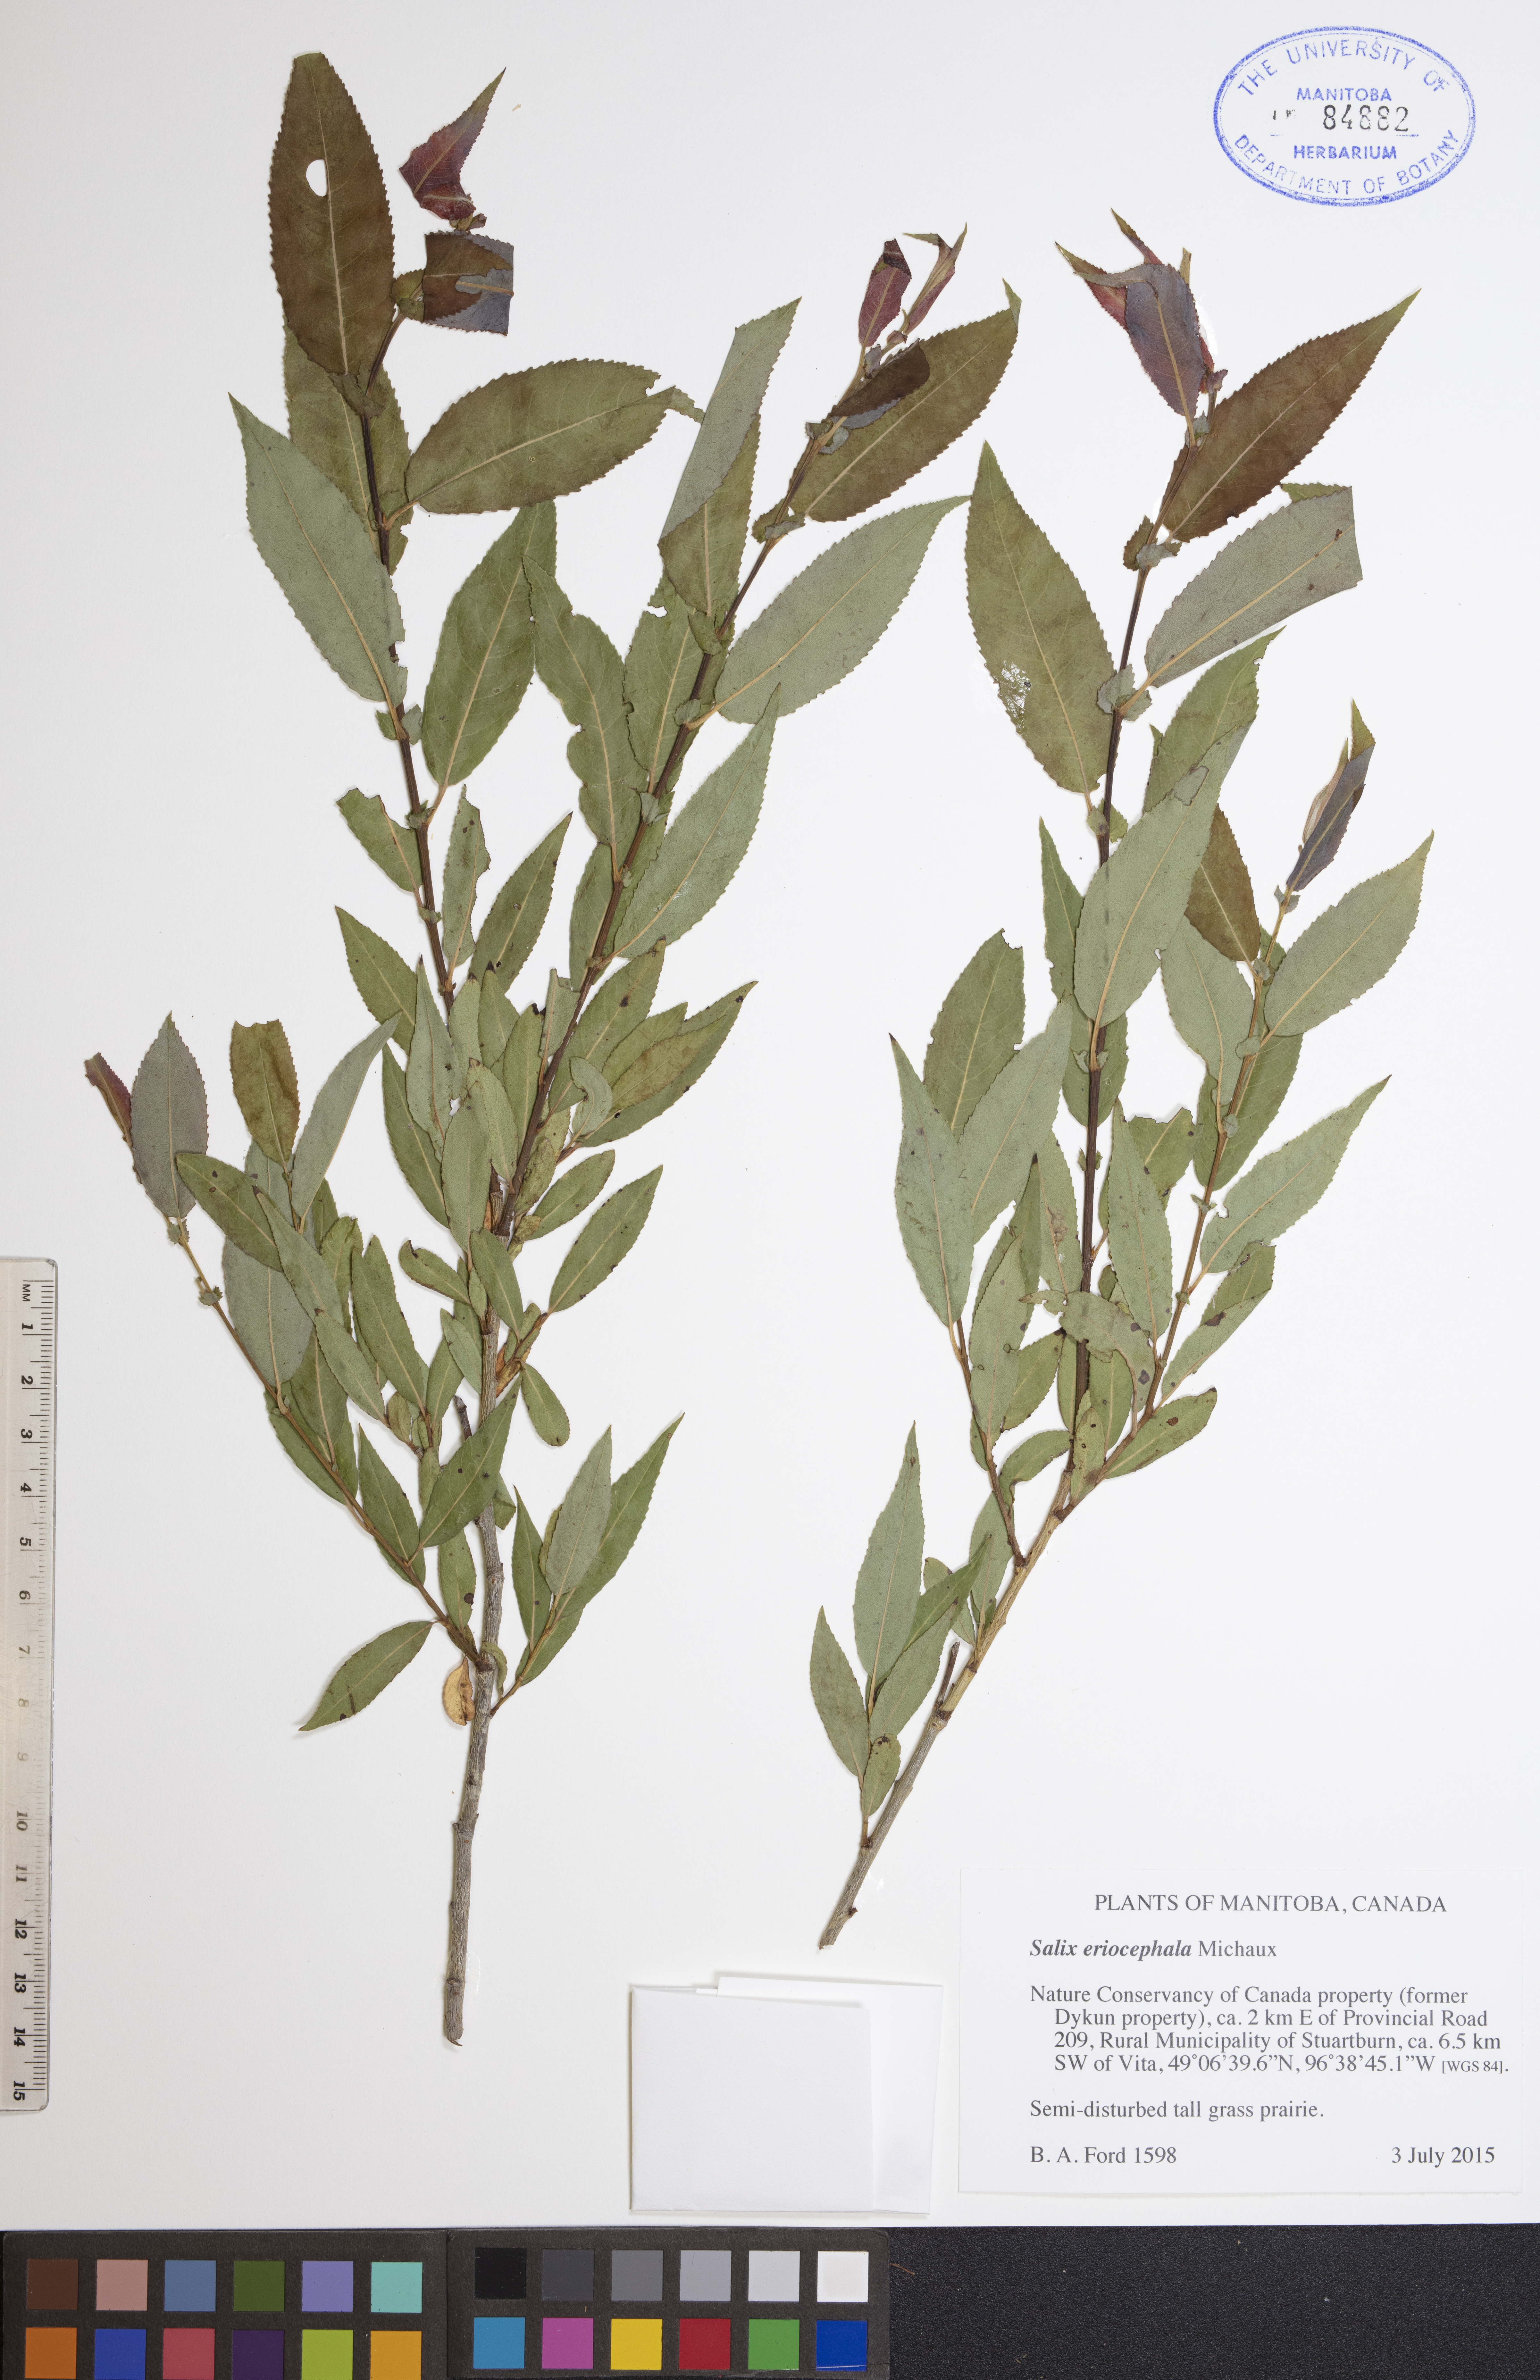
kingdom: Plantae
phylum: Tracheophyta
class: Magnoliopsida
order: Malpighiales
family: Salicaceae
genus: Salix
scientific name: Salix eriocephala
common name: Heart-leaved willow
